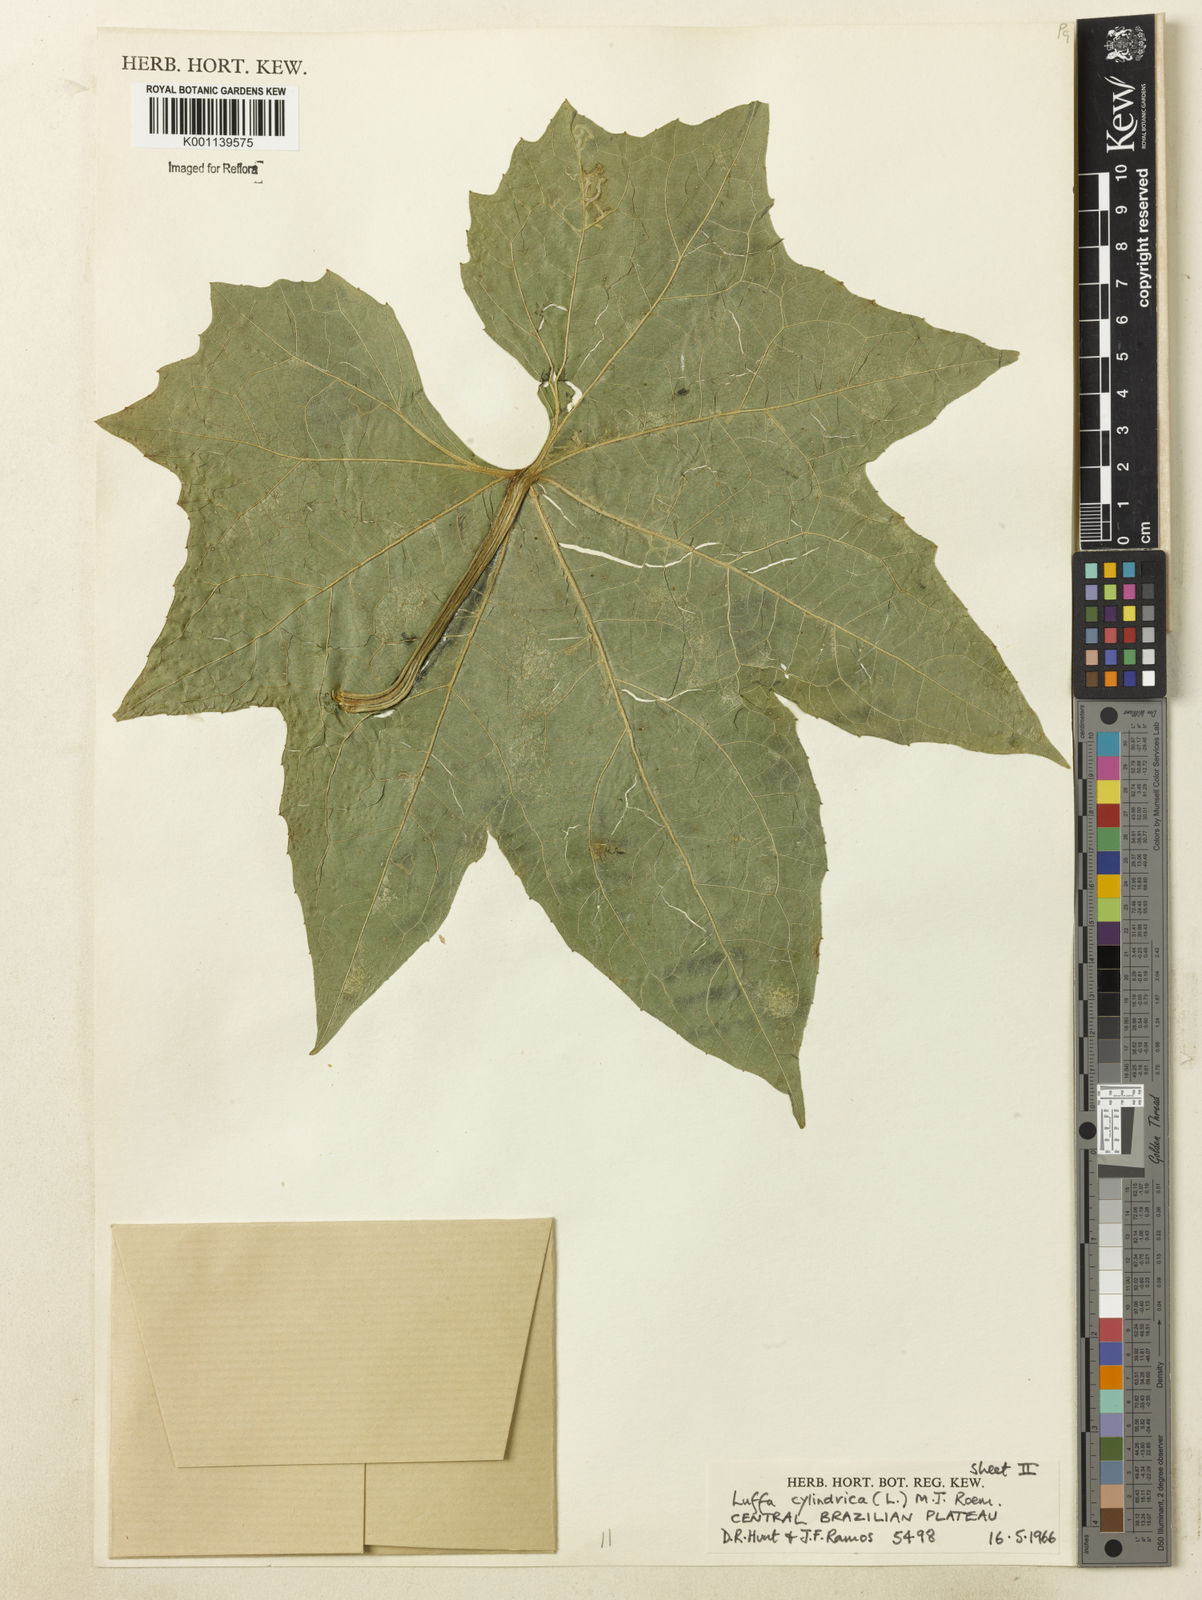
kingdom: Plantae
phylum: Tracheophyta
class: Magnoliopsida
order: Cucurbitales
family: Cucurbitaceae
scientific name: Cucurbitaceae
